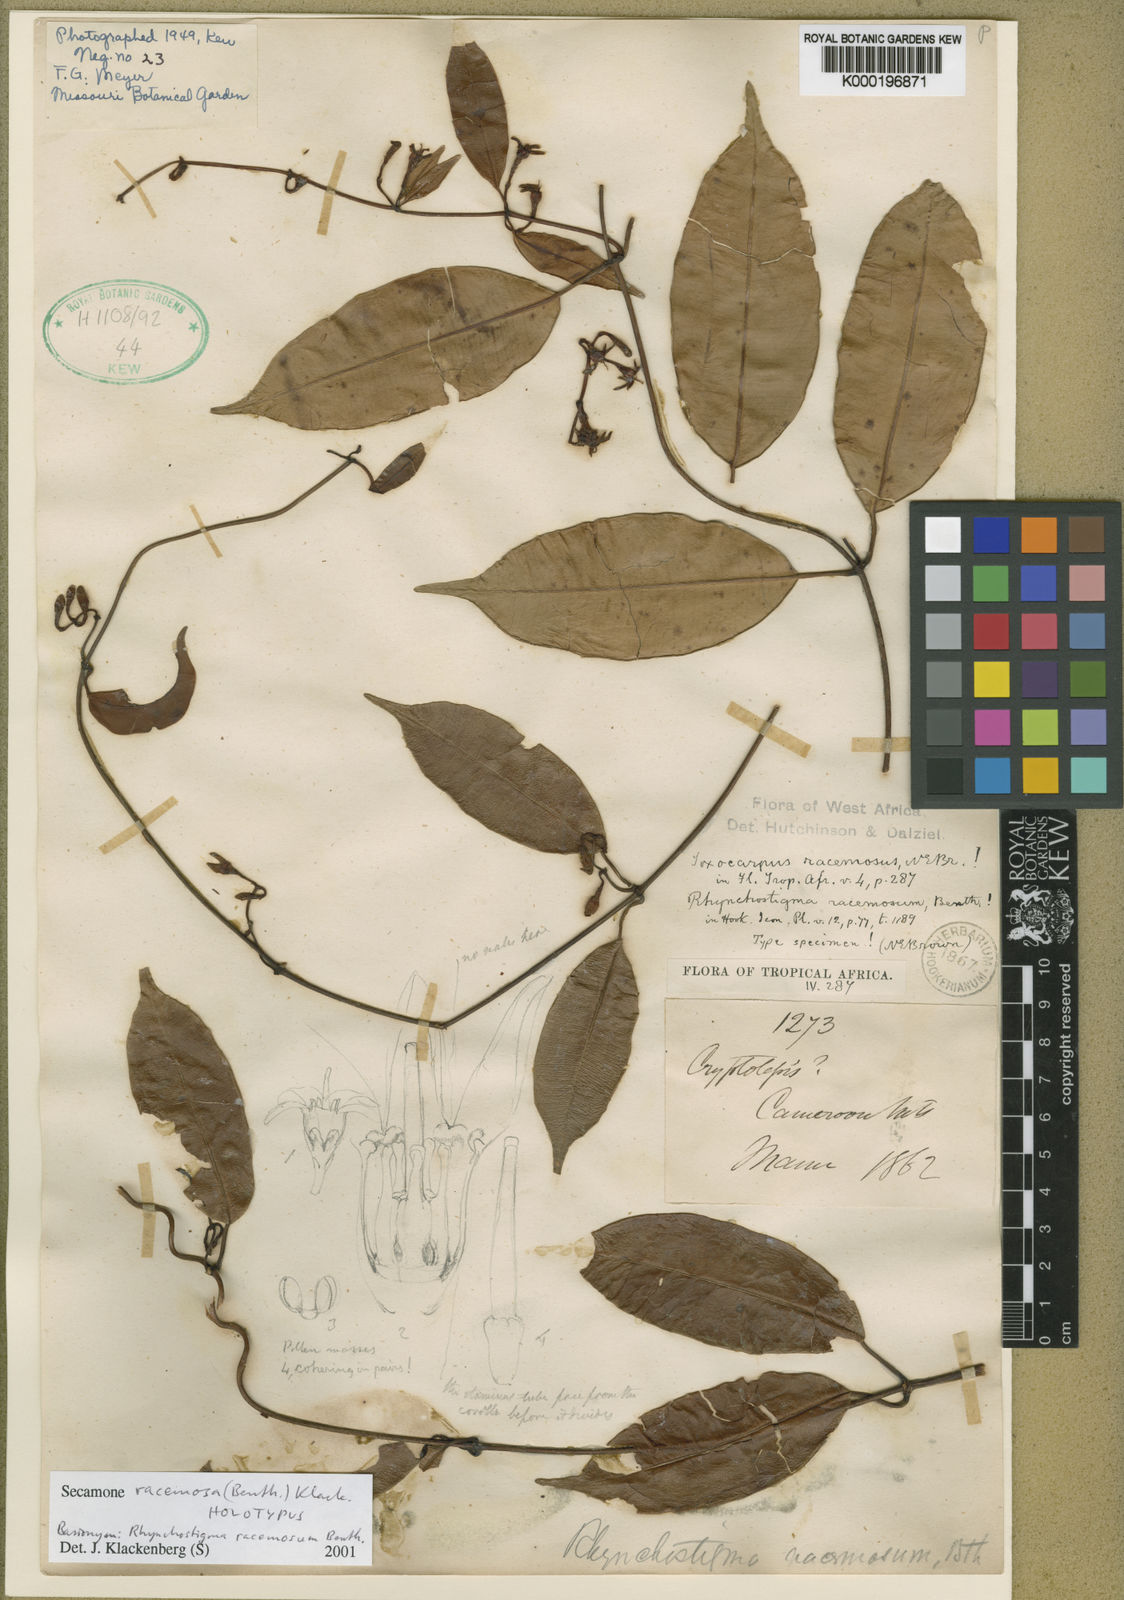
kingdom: Plantae
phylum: Tracheophyta
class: Magnoliopsida
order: Gentianales
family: Apocynaceae
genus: Secamone
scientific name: Secamone racemosa
